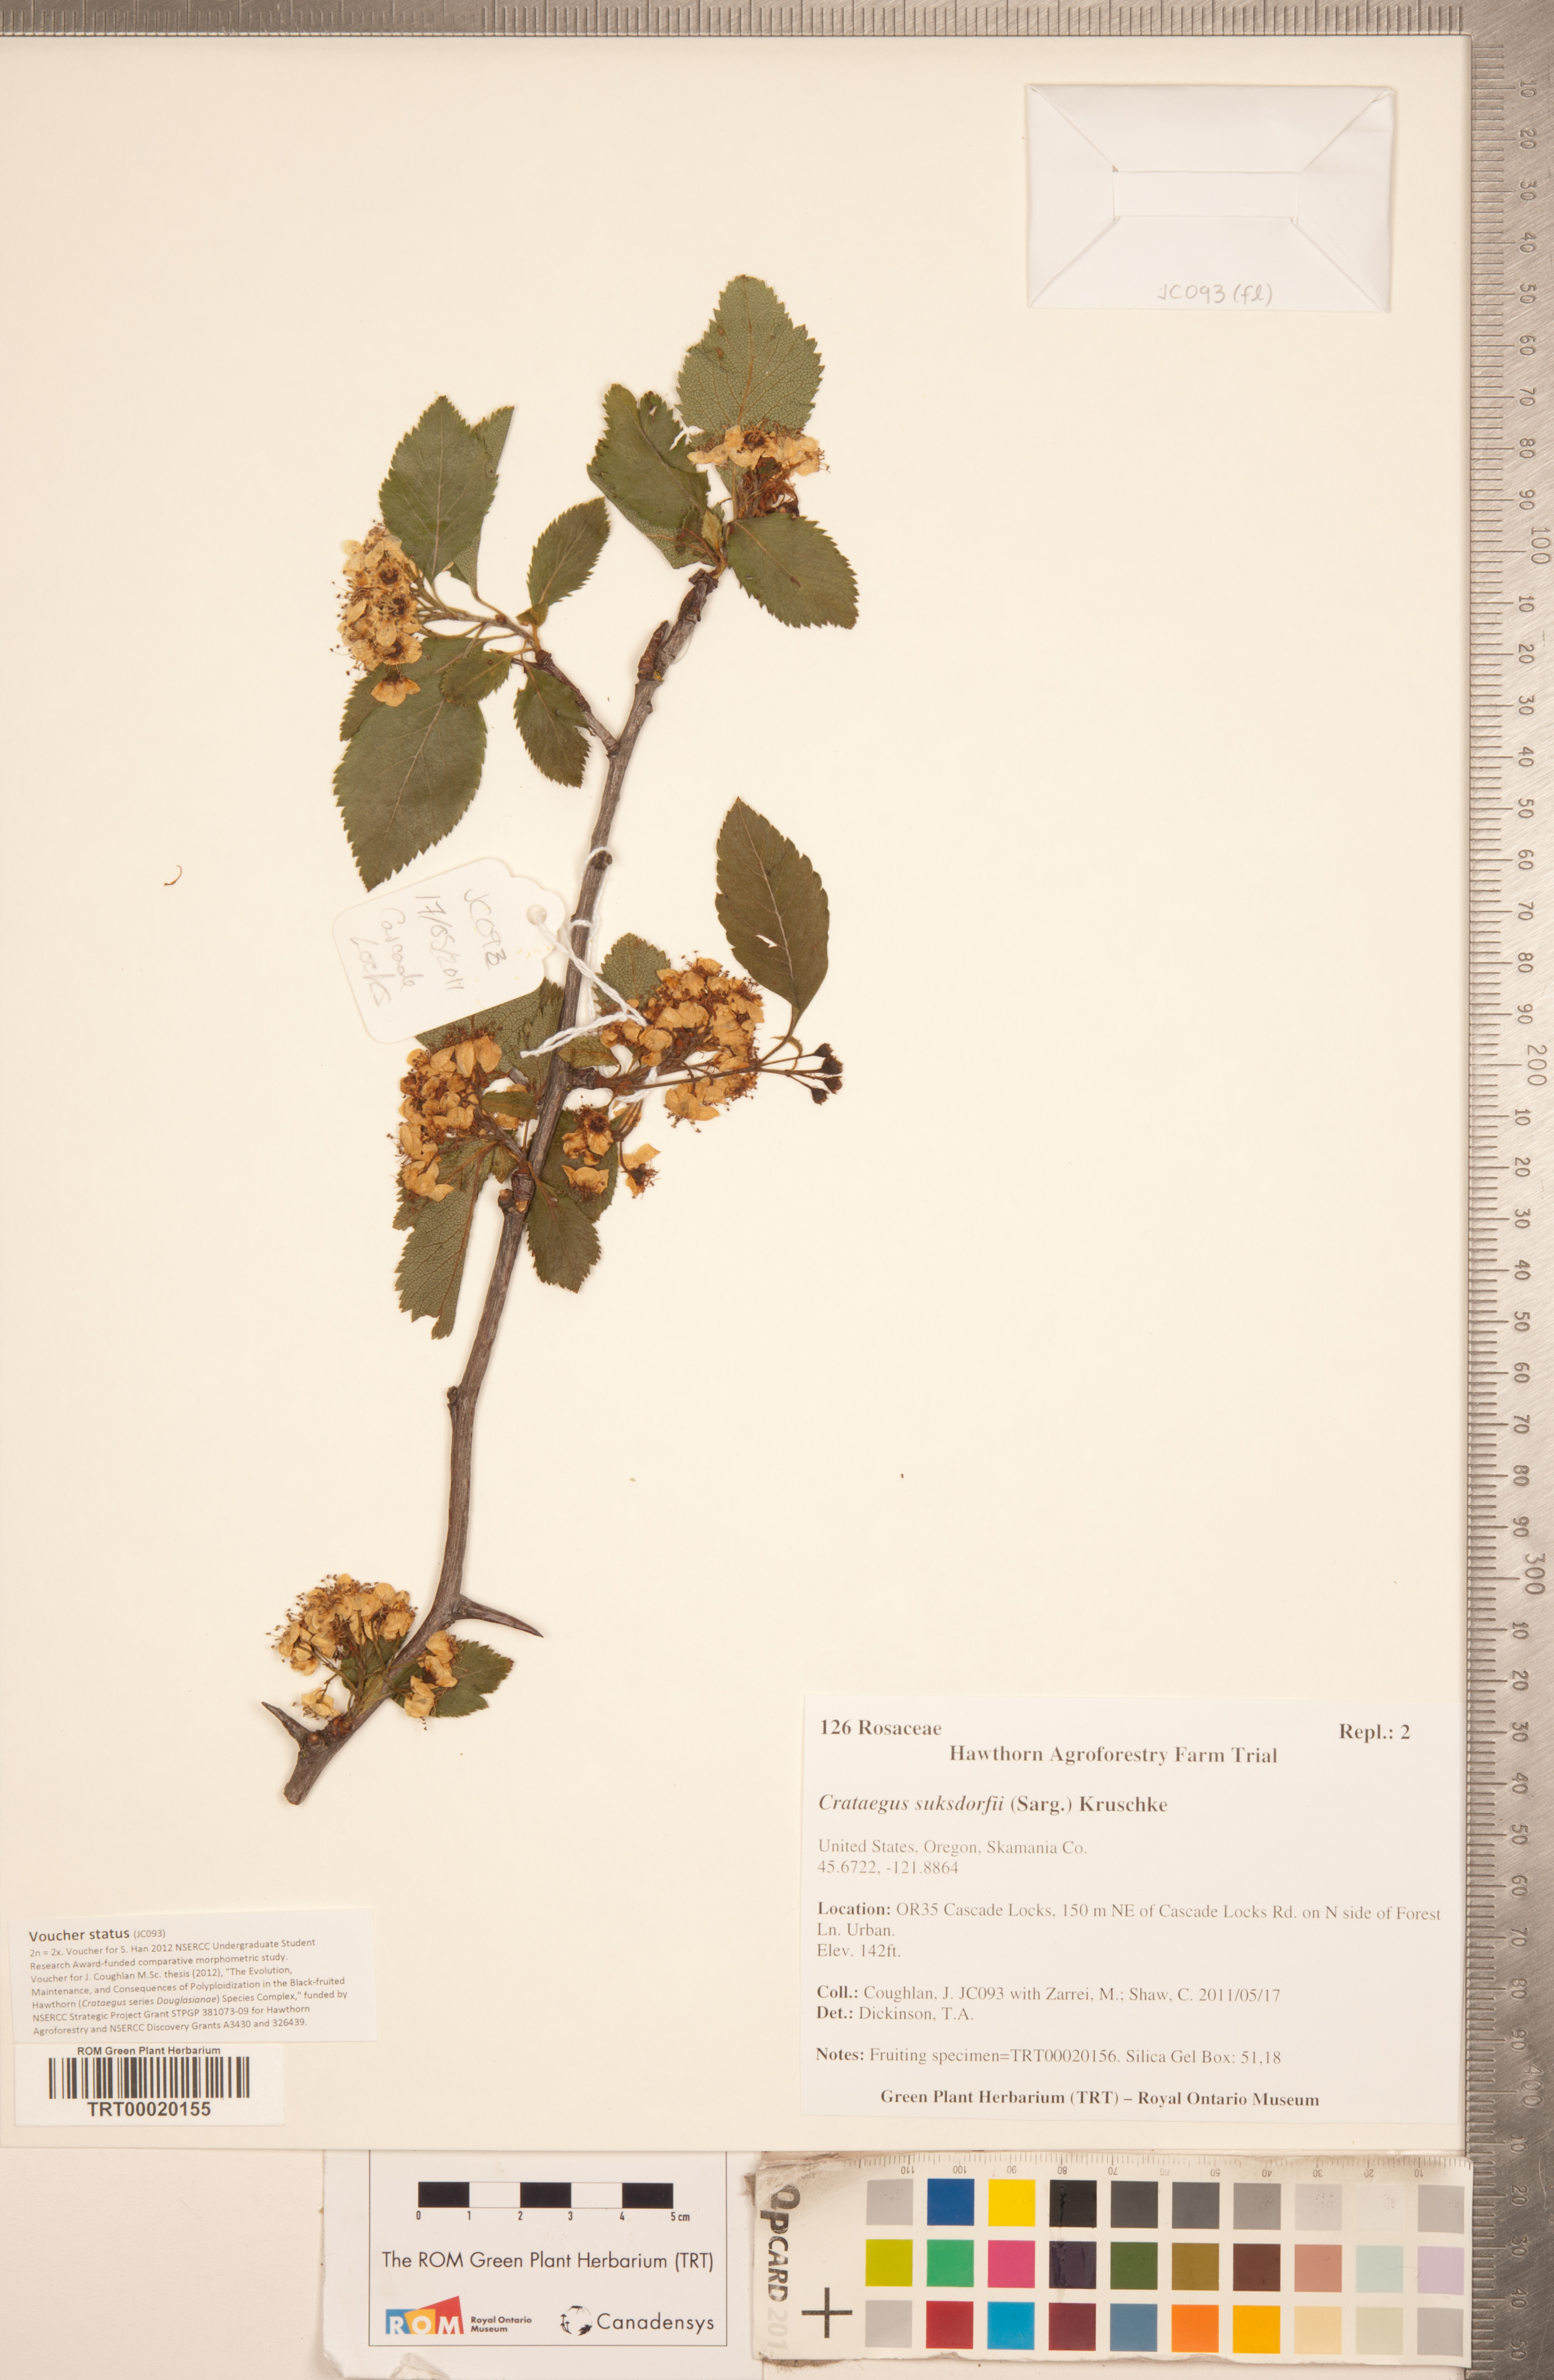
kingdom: Plantae
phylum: Tracheophyta
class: Magnoliopsida
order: Rosales
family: Rosaceae
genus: Crataegus
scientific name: Crataegus gaylussacia
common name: Huckleberry hawthorn
